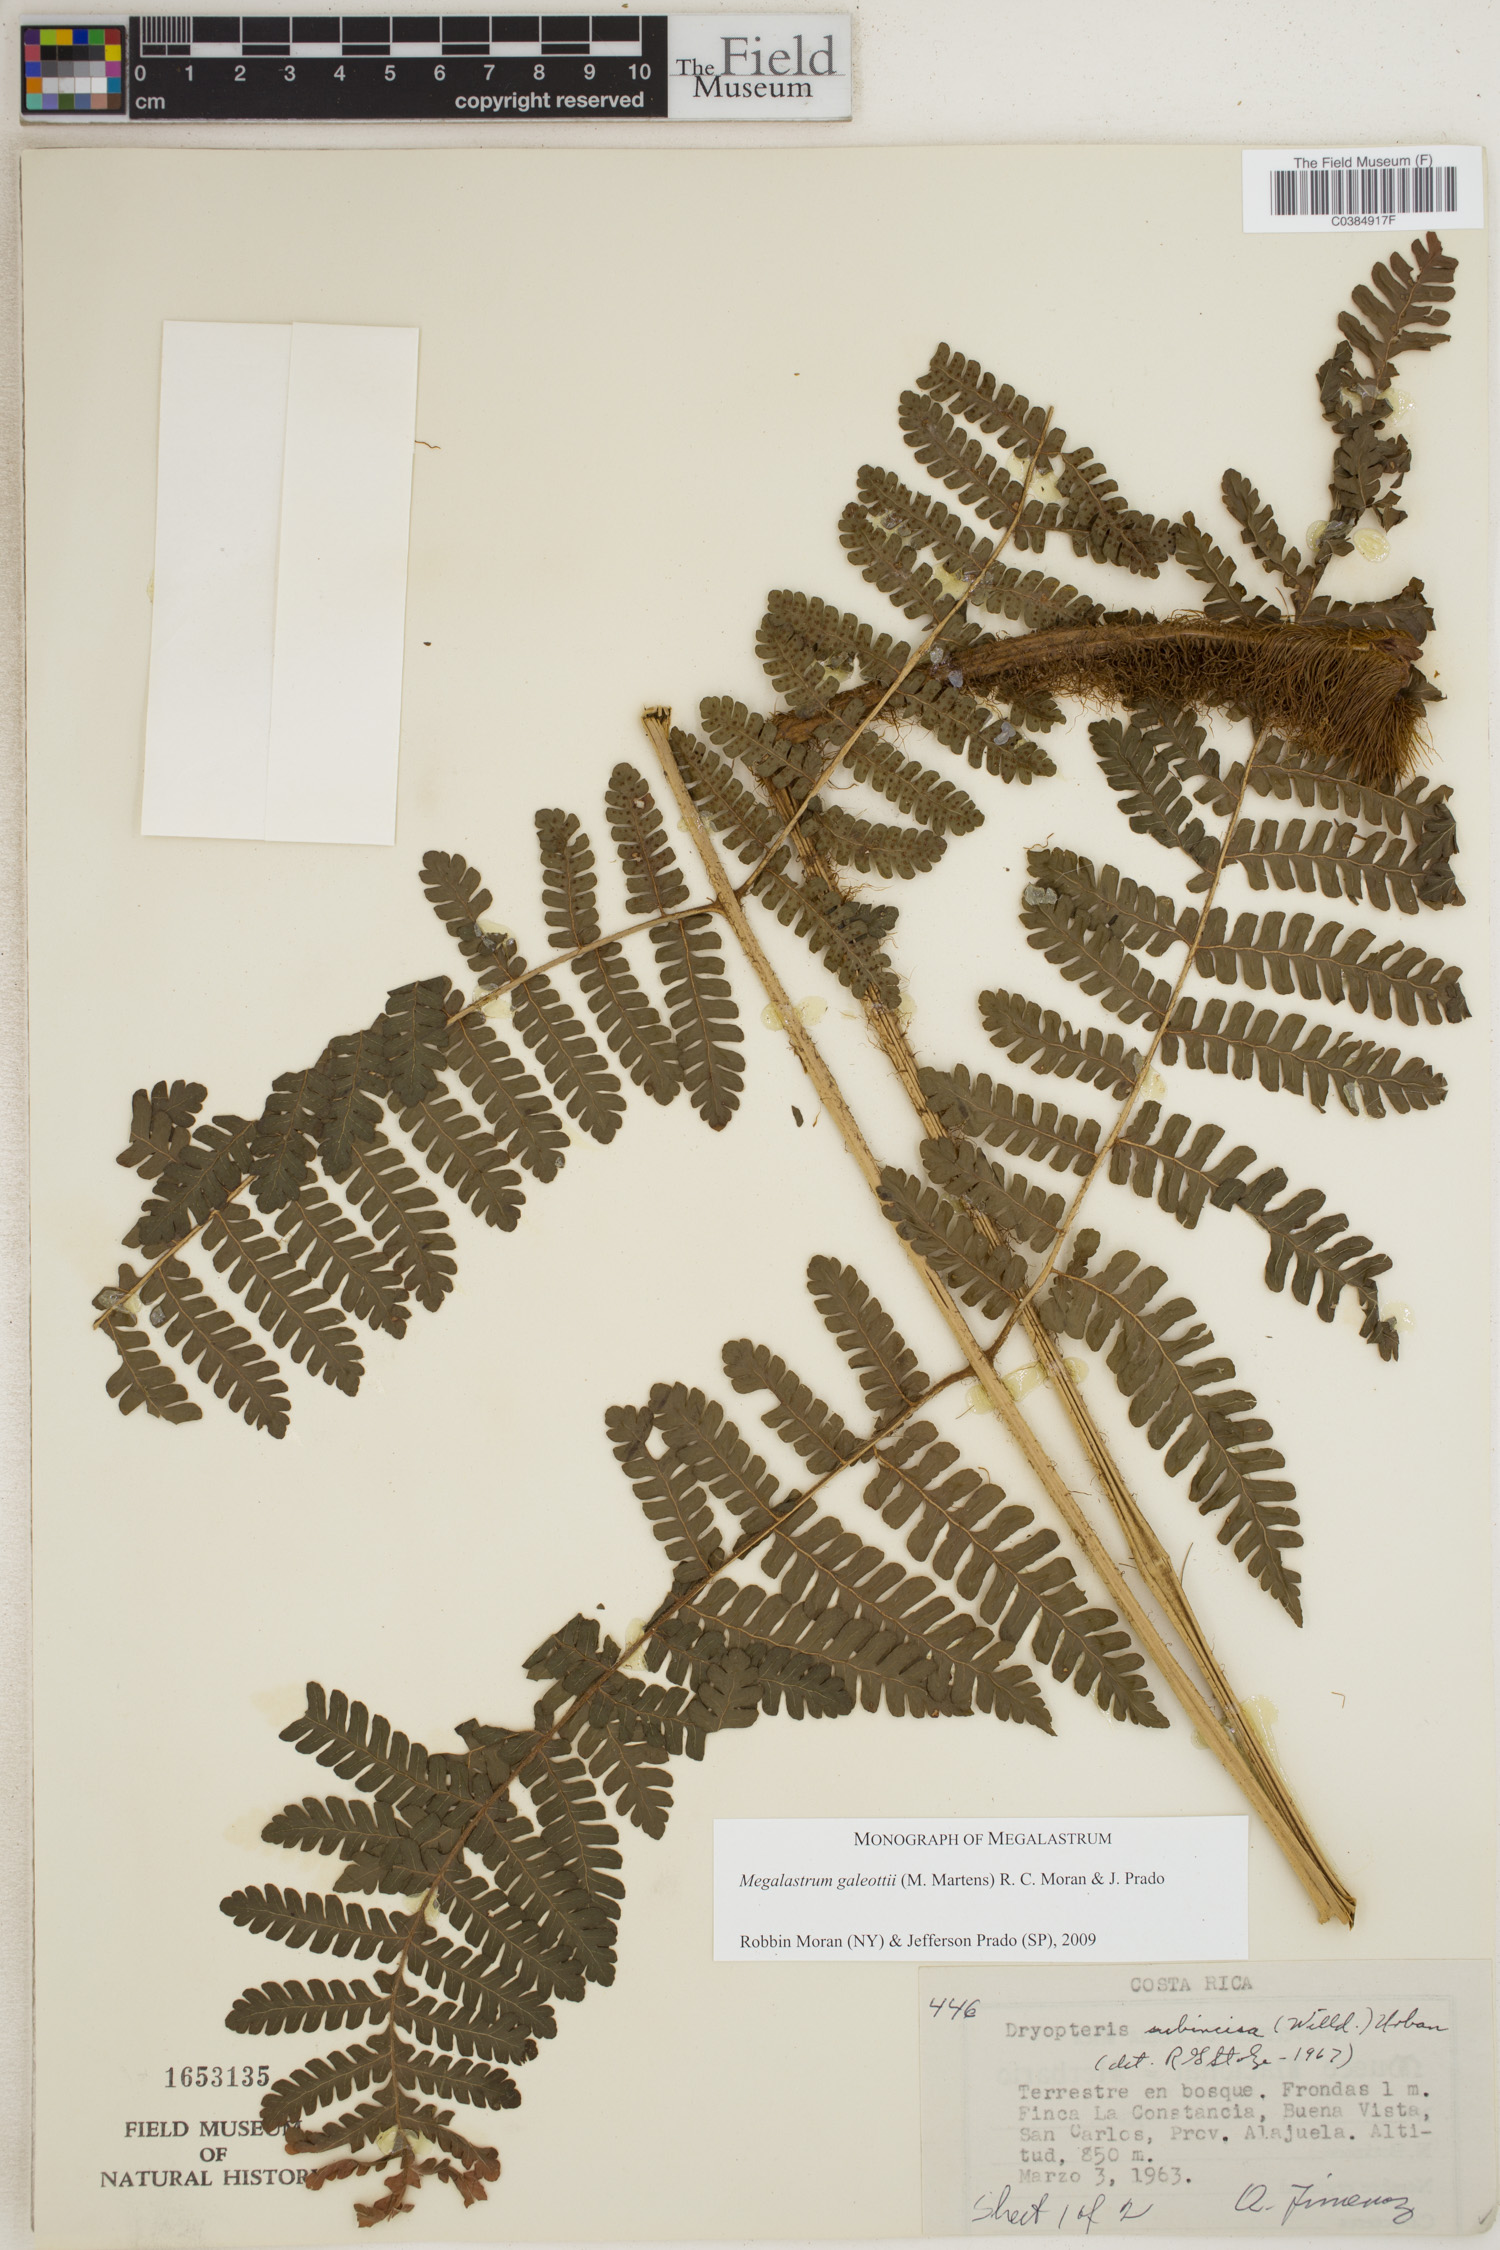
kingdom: Plantae
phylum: Tracheophyta
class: Polypodiopsida
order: Polypodiales
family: Dryopteridaceae
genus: Megalastrum
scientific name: Megalastrum galeottii
